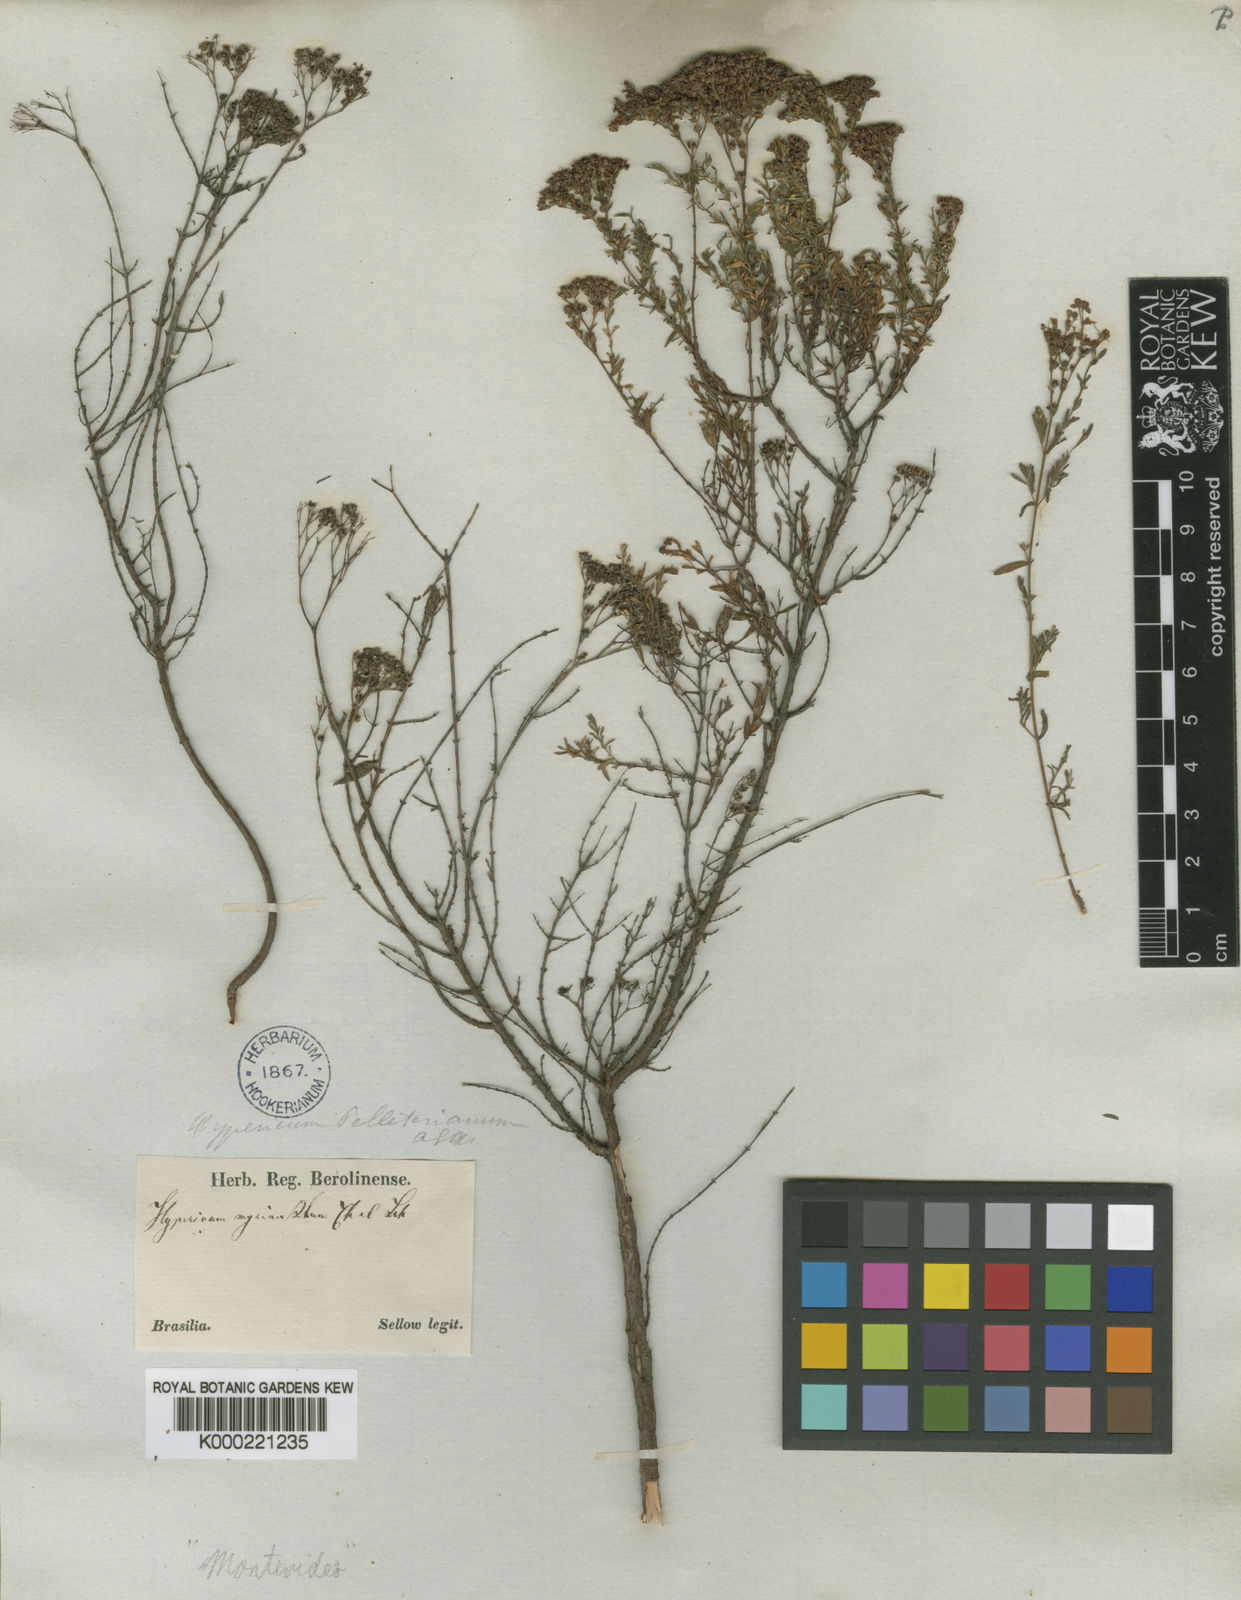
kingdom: Plantae
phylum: Tracheophyta
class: Magnoliopsida
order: Malpighiales
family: Hypericaceae
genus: Hypericum
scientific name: Hypericum myrianthum
